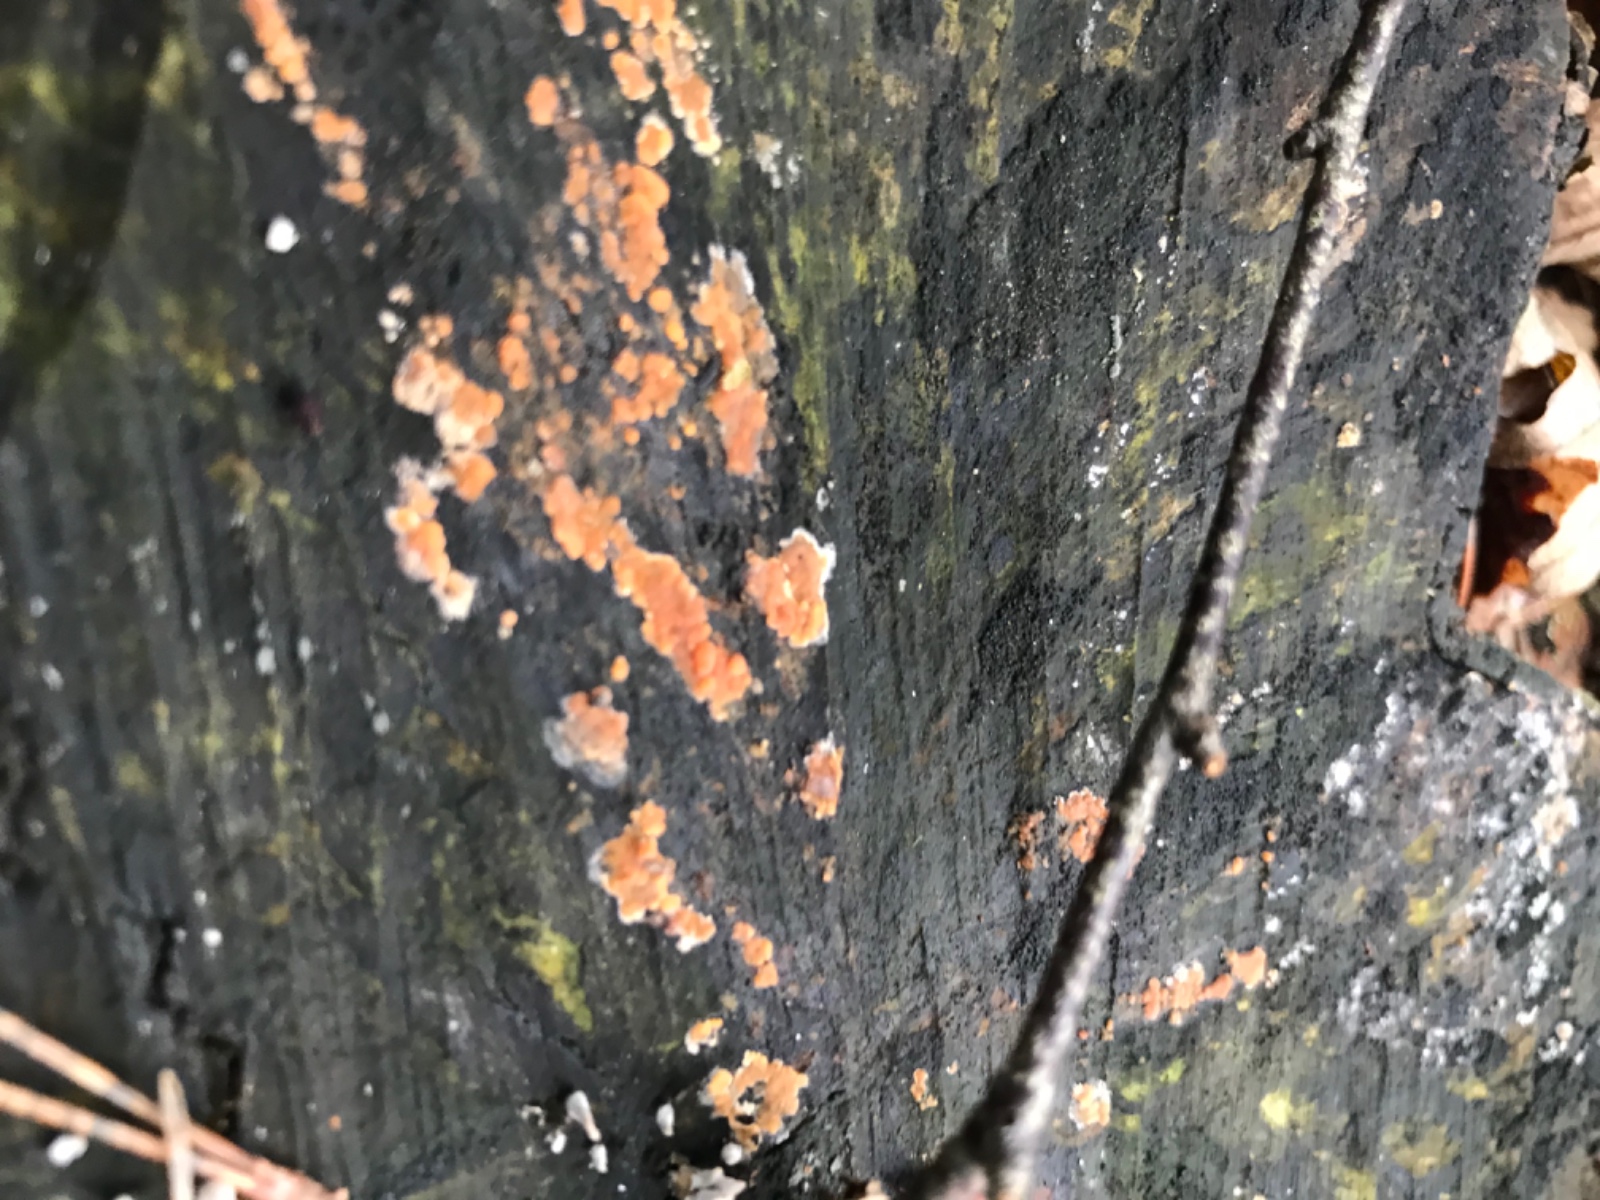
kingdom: Fungi
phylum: Basidiomycota
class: Agaricomycetes
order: Russulales
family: Peniophoraceae
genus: Peniophora
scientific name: Peniophora incarnata
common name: laksefarvet voksskind
